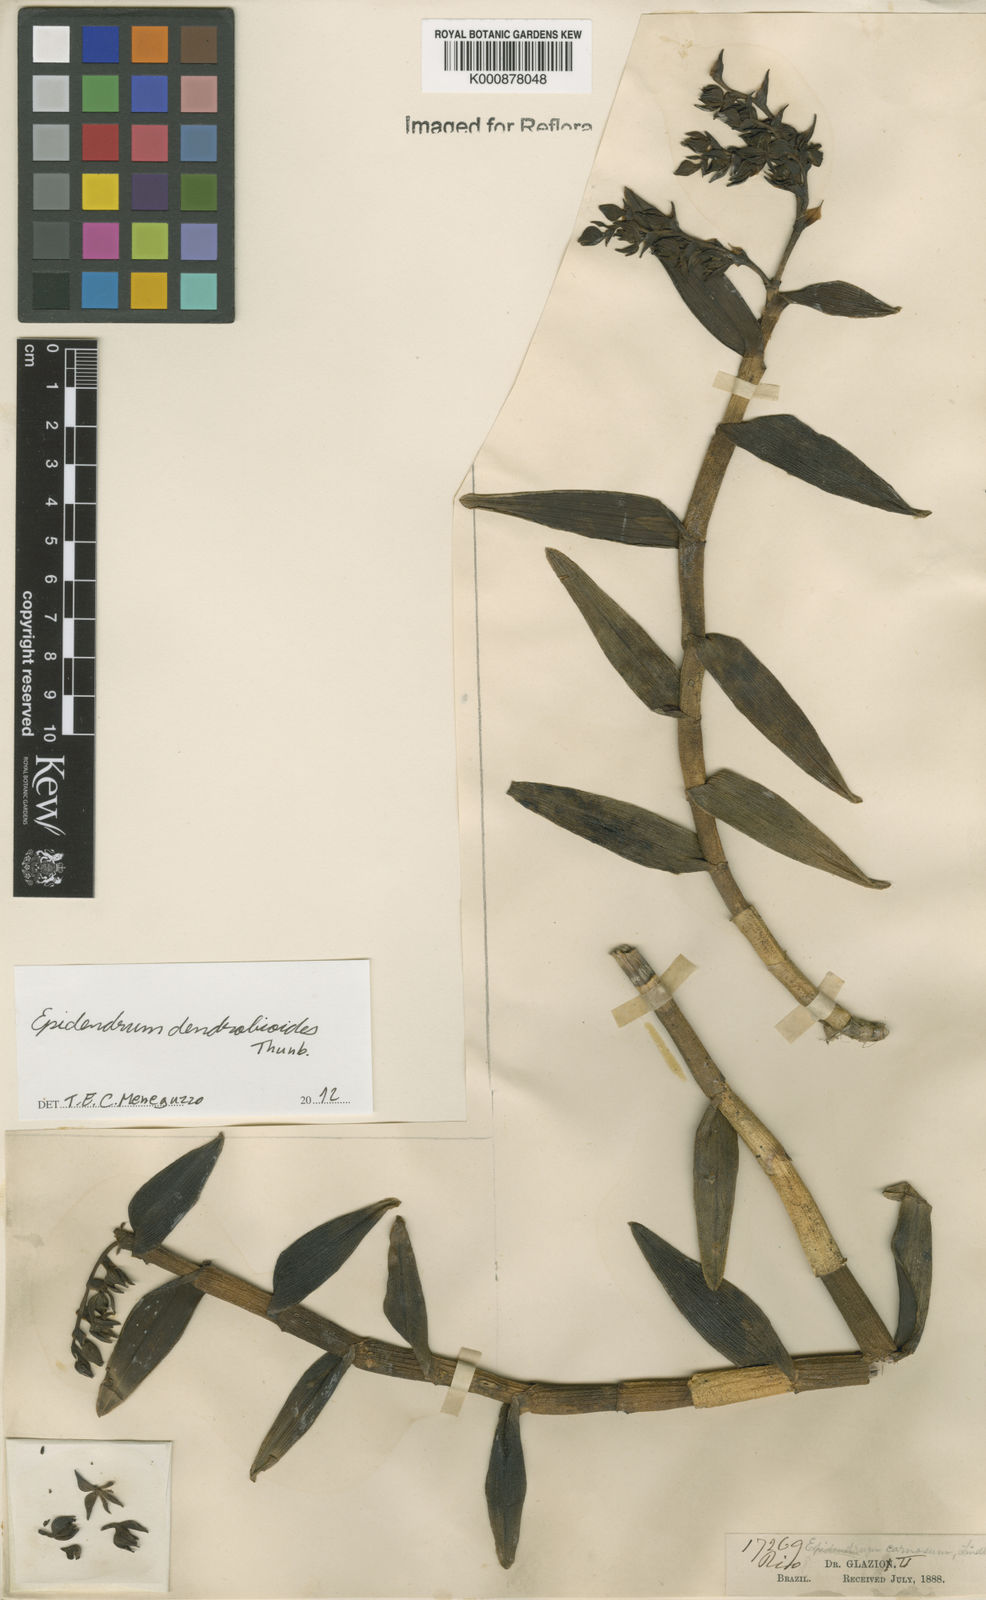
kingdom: Plantae
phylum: Tracheophyta
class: Liliopsida
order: Asparagales
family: Orchidaceae
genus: Epidendrum
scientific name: Epidendrum dendrobioides
